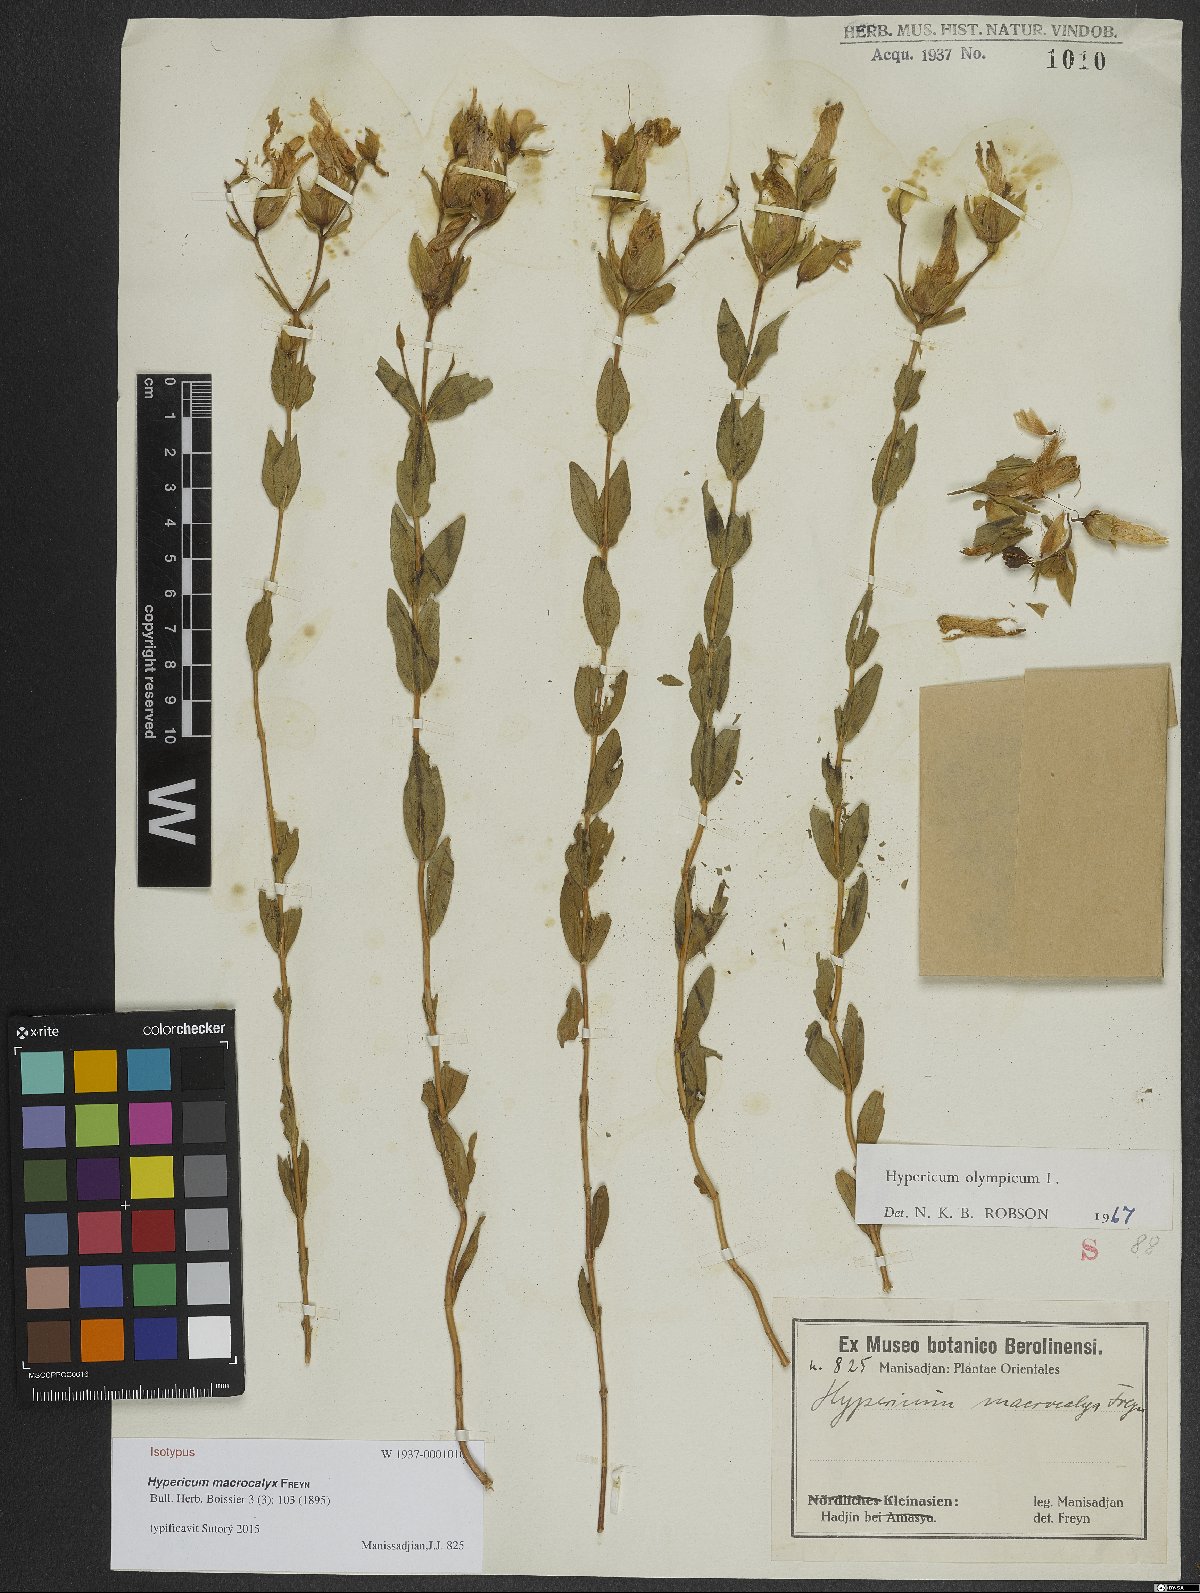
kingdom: Plantae
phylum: Tracheophyta
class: Magnoliopsida
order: Malpighiales
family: Hypericaceae
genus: Hypericum
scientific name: Hypericum olympicum
